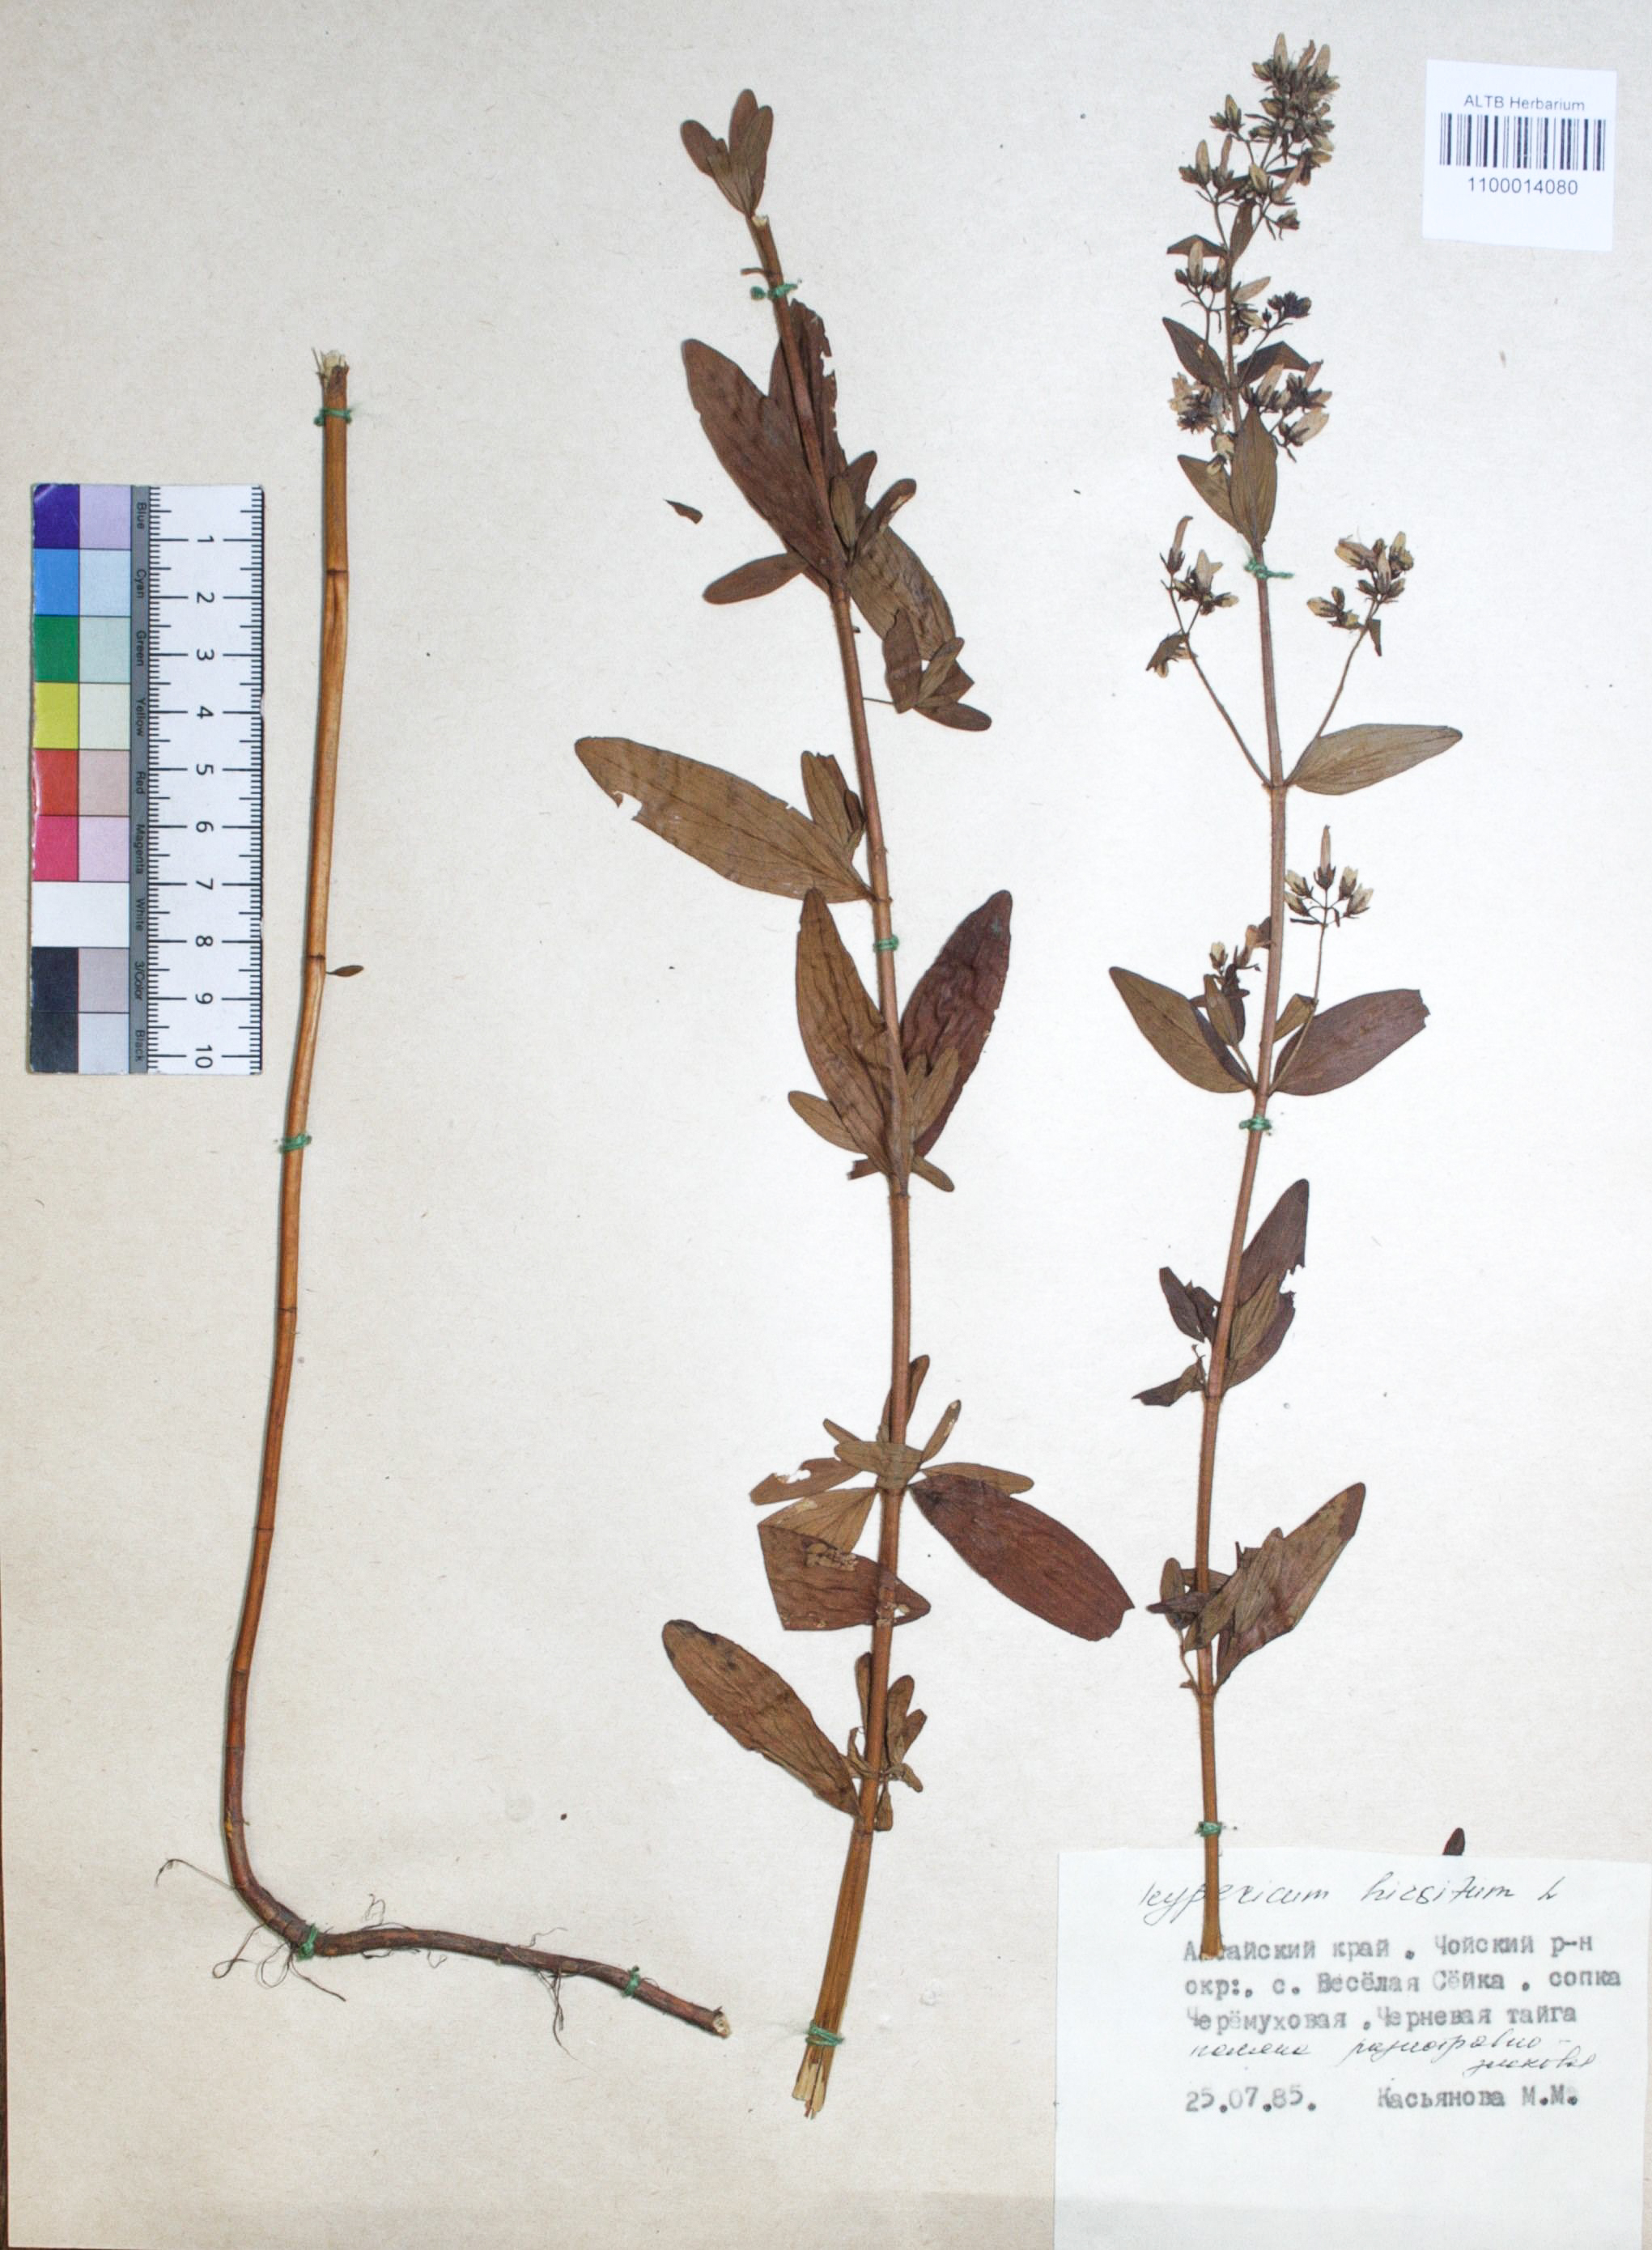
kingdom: Plantae
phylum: Tracheophyta
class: Magnoliopsida
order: Malpighiales
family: Hypericaceae
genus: Hypericum
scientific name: Hypericum hirsutum
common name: Hairy st. john's-wort
